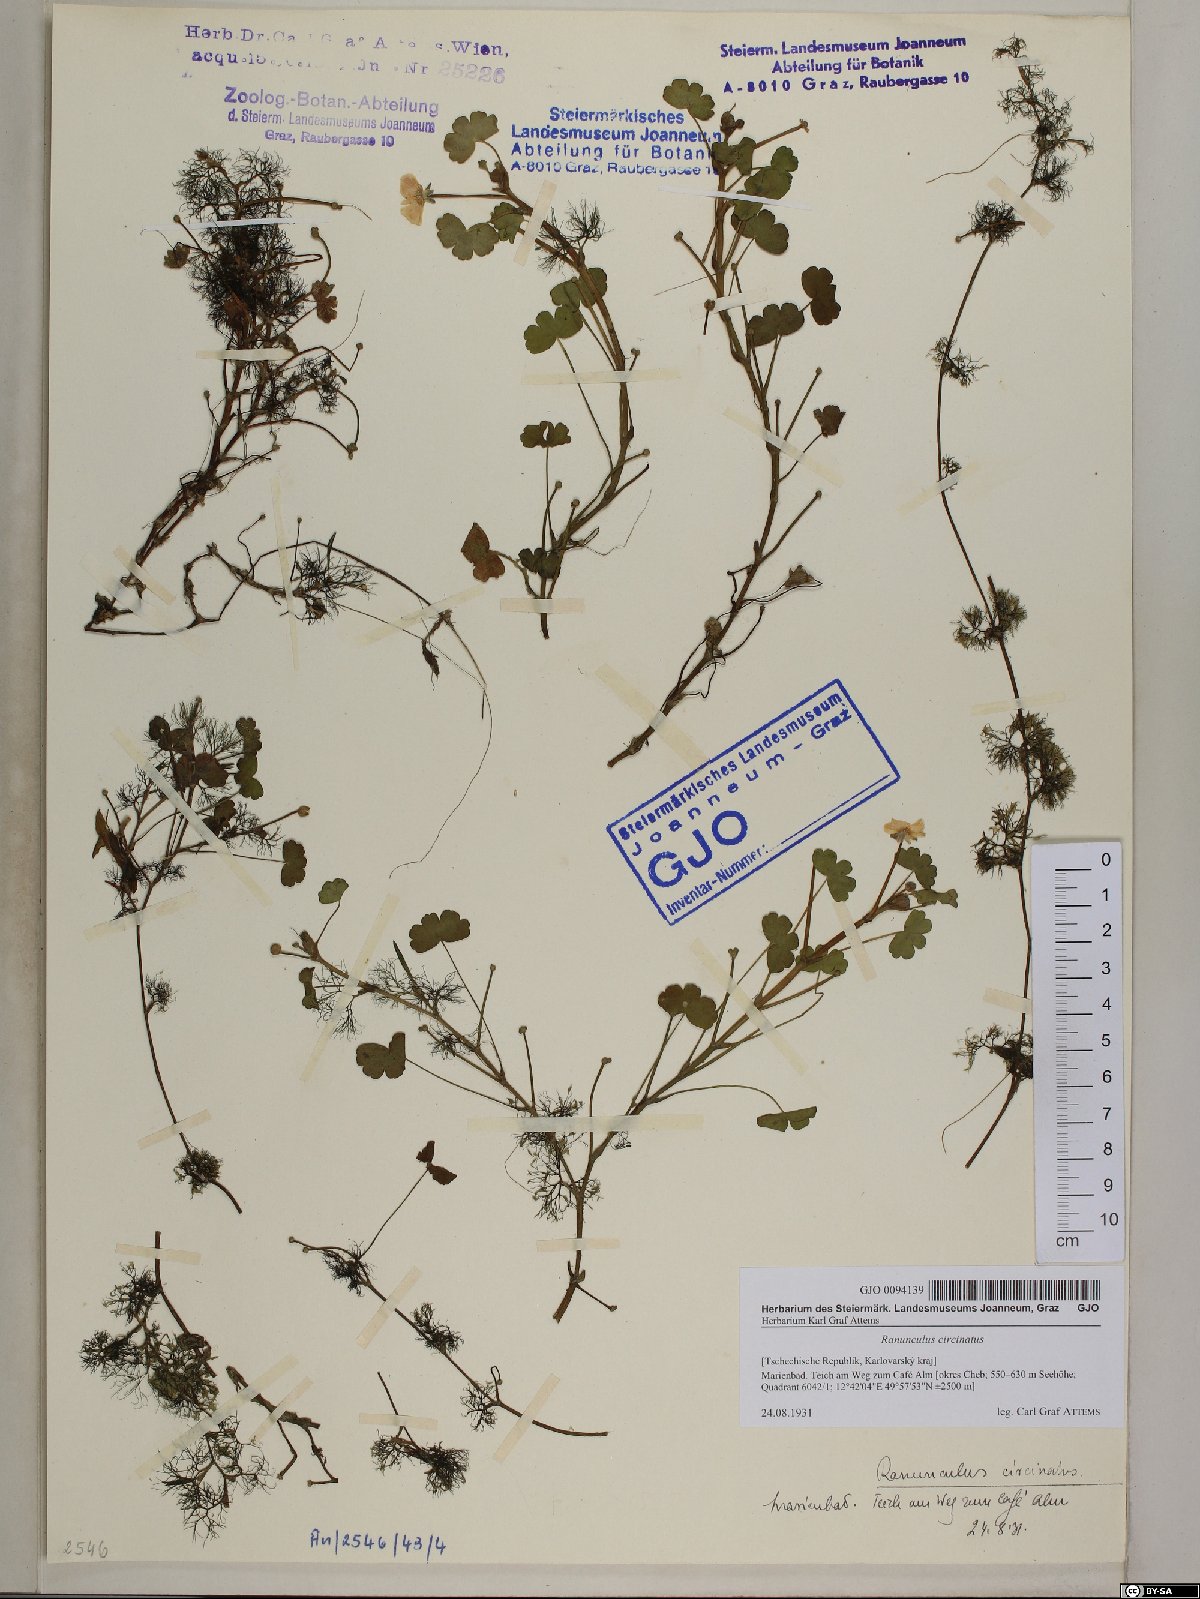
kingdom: Plantae
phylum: Tracheophyta
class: Magnoliopsida
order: Ranunculales
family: Ranunculaceae
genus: Ranunculus
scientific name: Ranunculus circinatus
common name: Fan-leaved water-crowfoot
